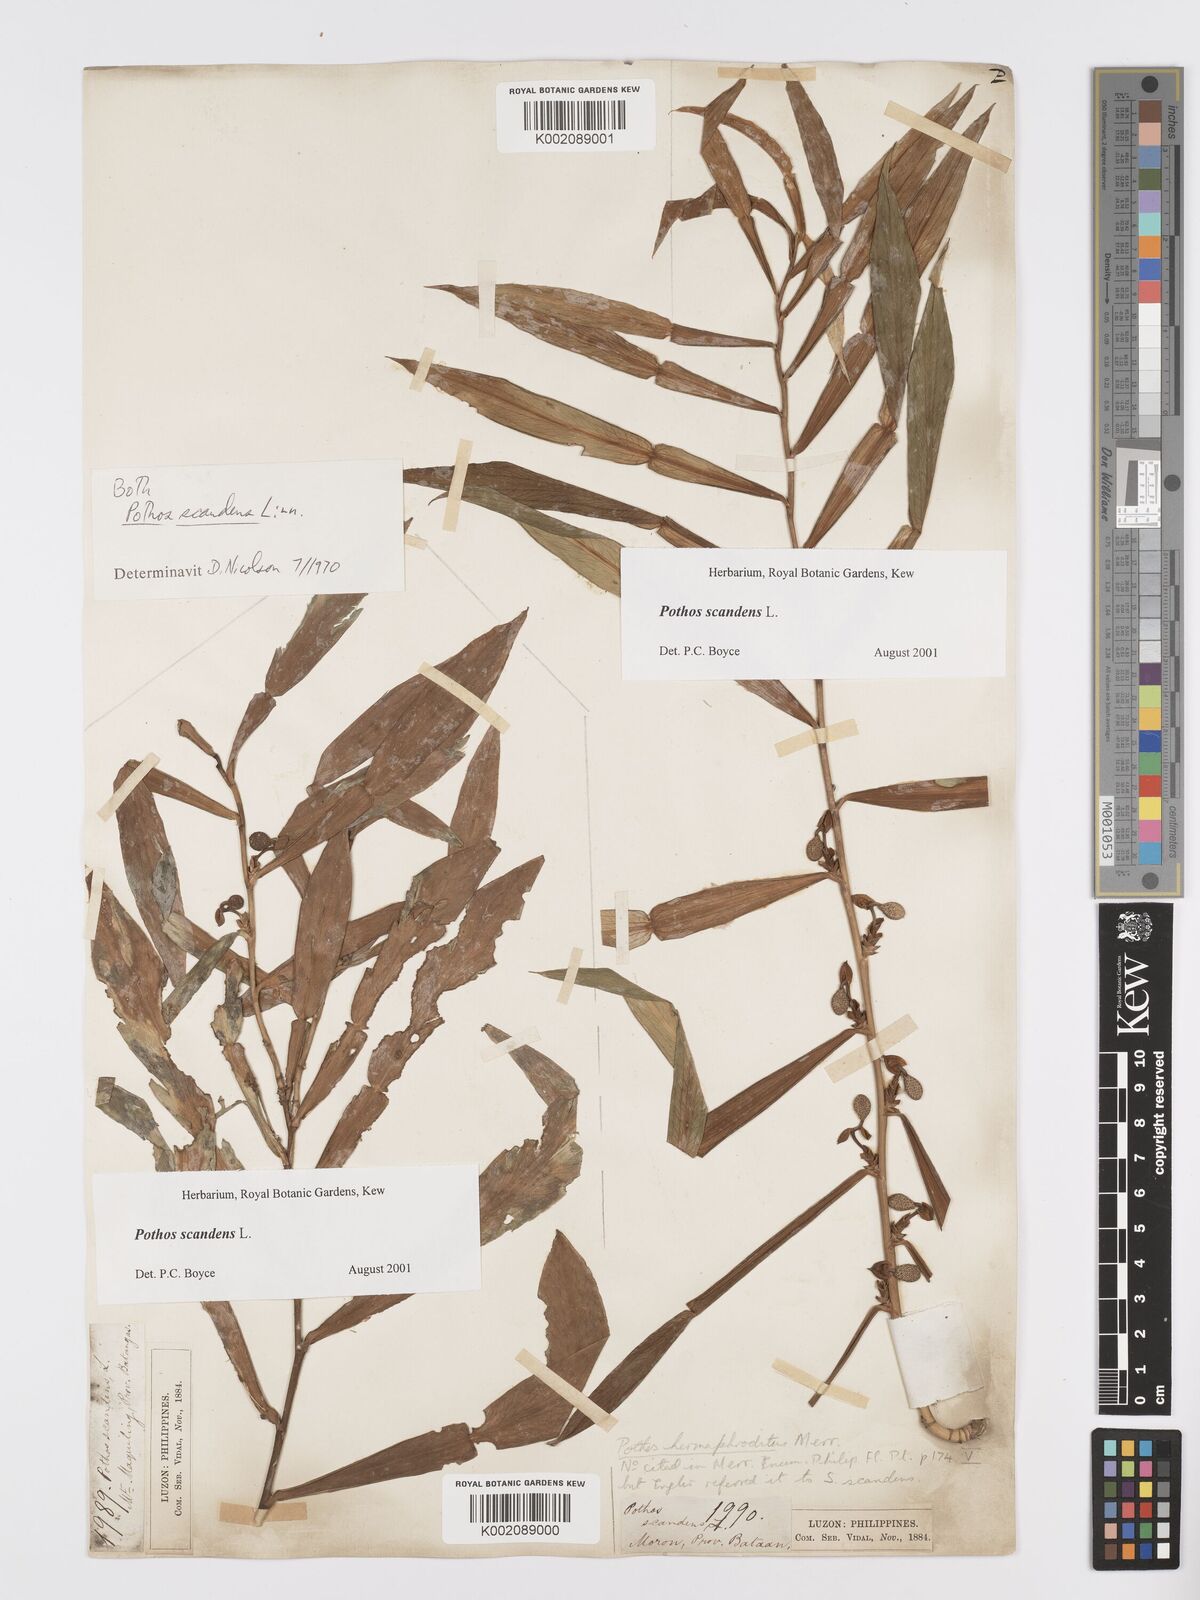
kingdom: Plantae
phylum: Tracheophyta
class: Liliopsida
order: Alismatales
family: Araceae
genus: Pothos
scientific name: Pothos scandens
